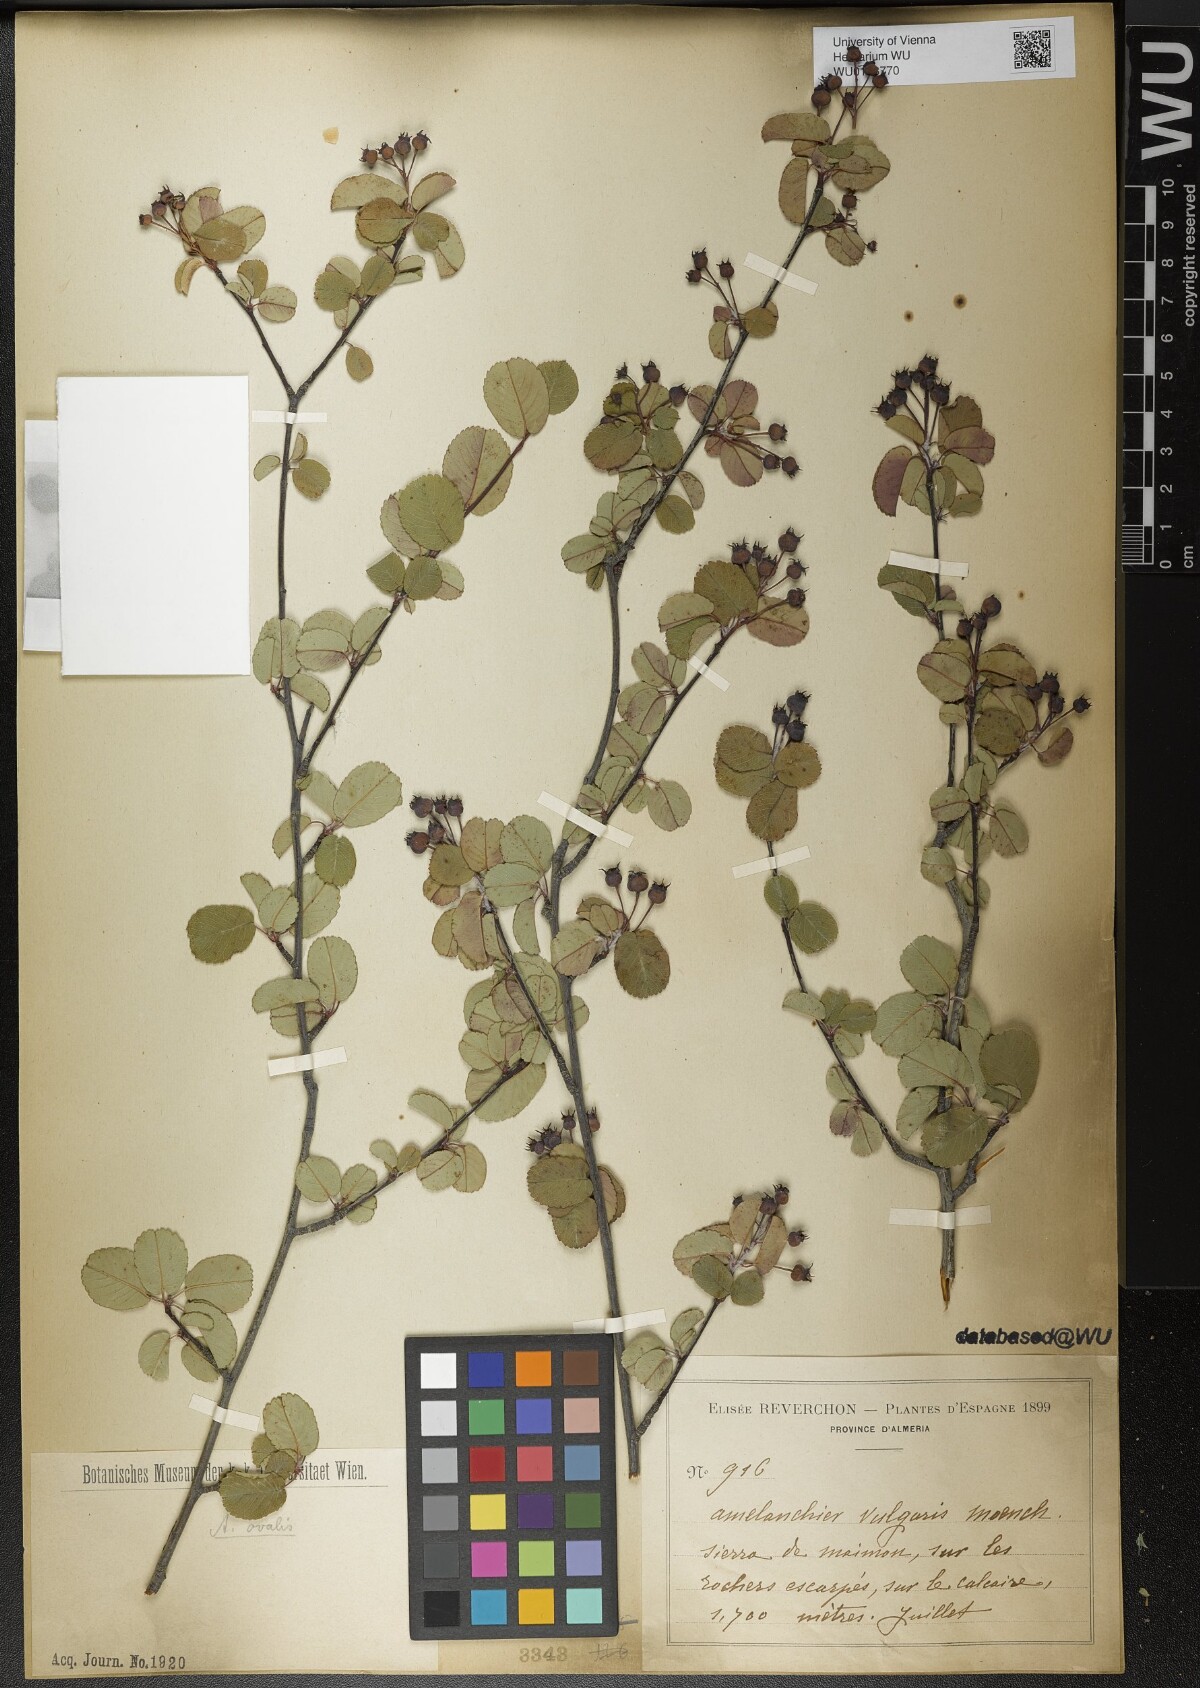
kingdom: Plantae
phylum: Tracheophyta
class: Magnoliopsida
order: Rosales
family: Rosaceae
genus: Amelanchier
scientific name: Amelanchier ovalis
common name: Serviceberry
